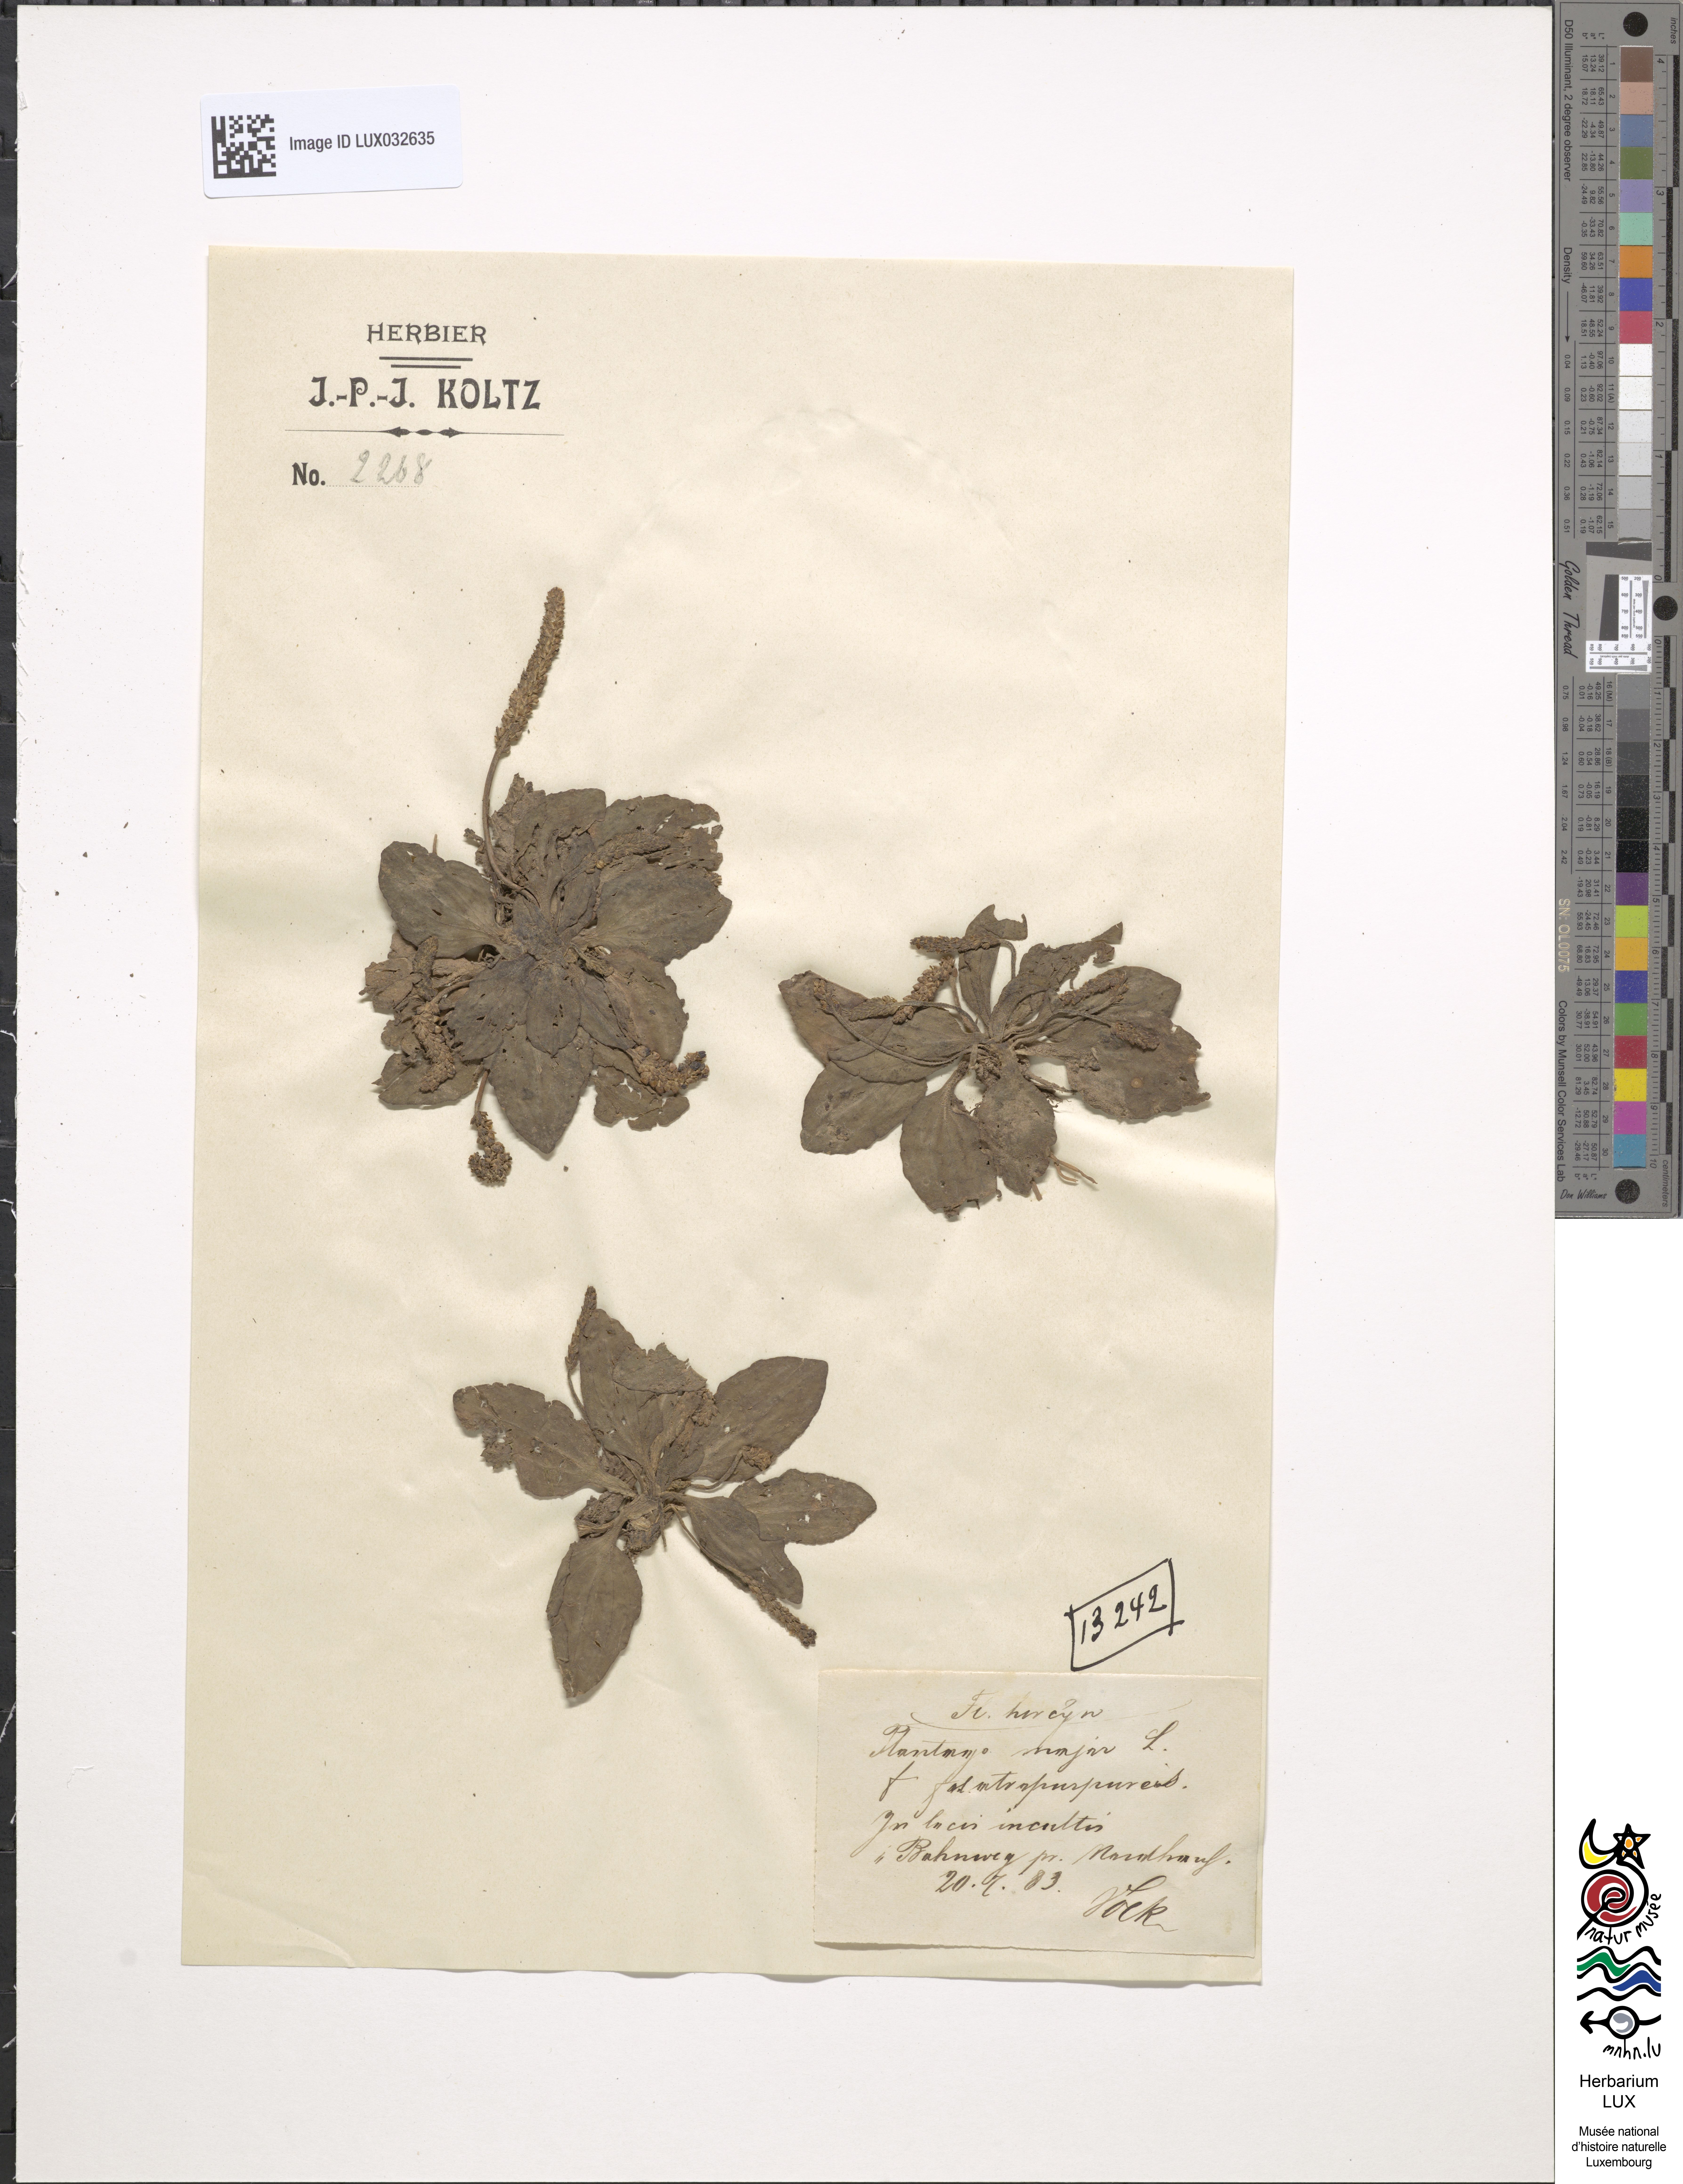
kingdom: Plantae
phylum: Tracheophyta
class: Magnoliopsida
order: Lamiales
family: Plantaginaceae
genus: Plantago
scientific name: Plantago major
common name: Common plantain
